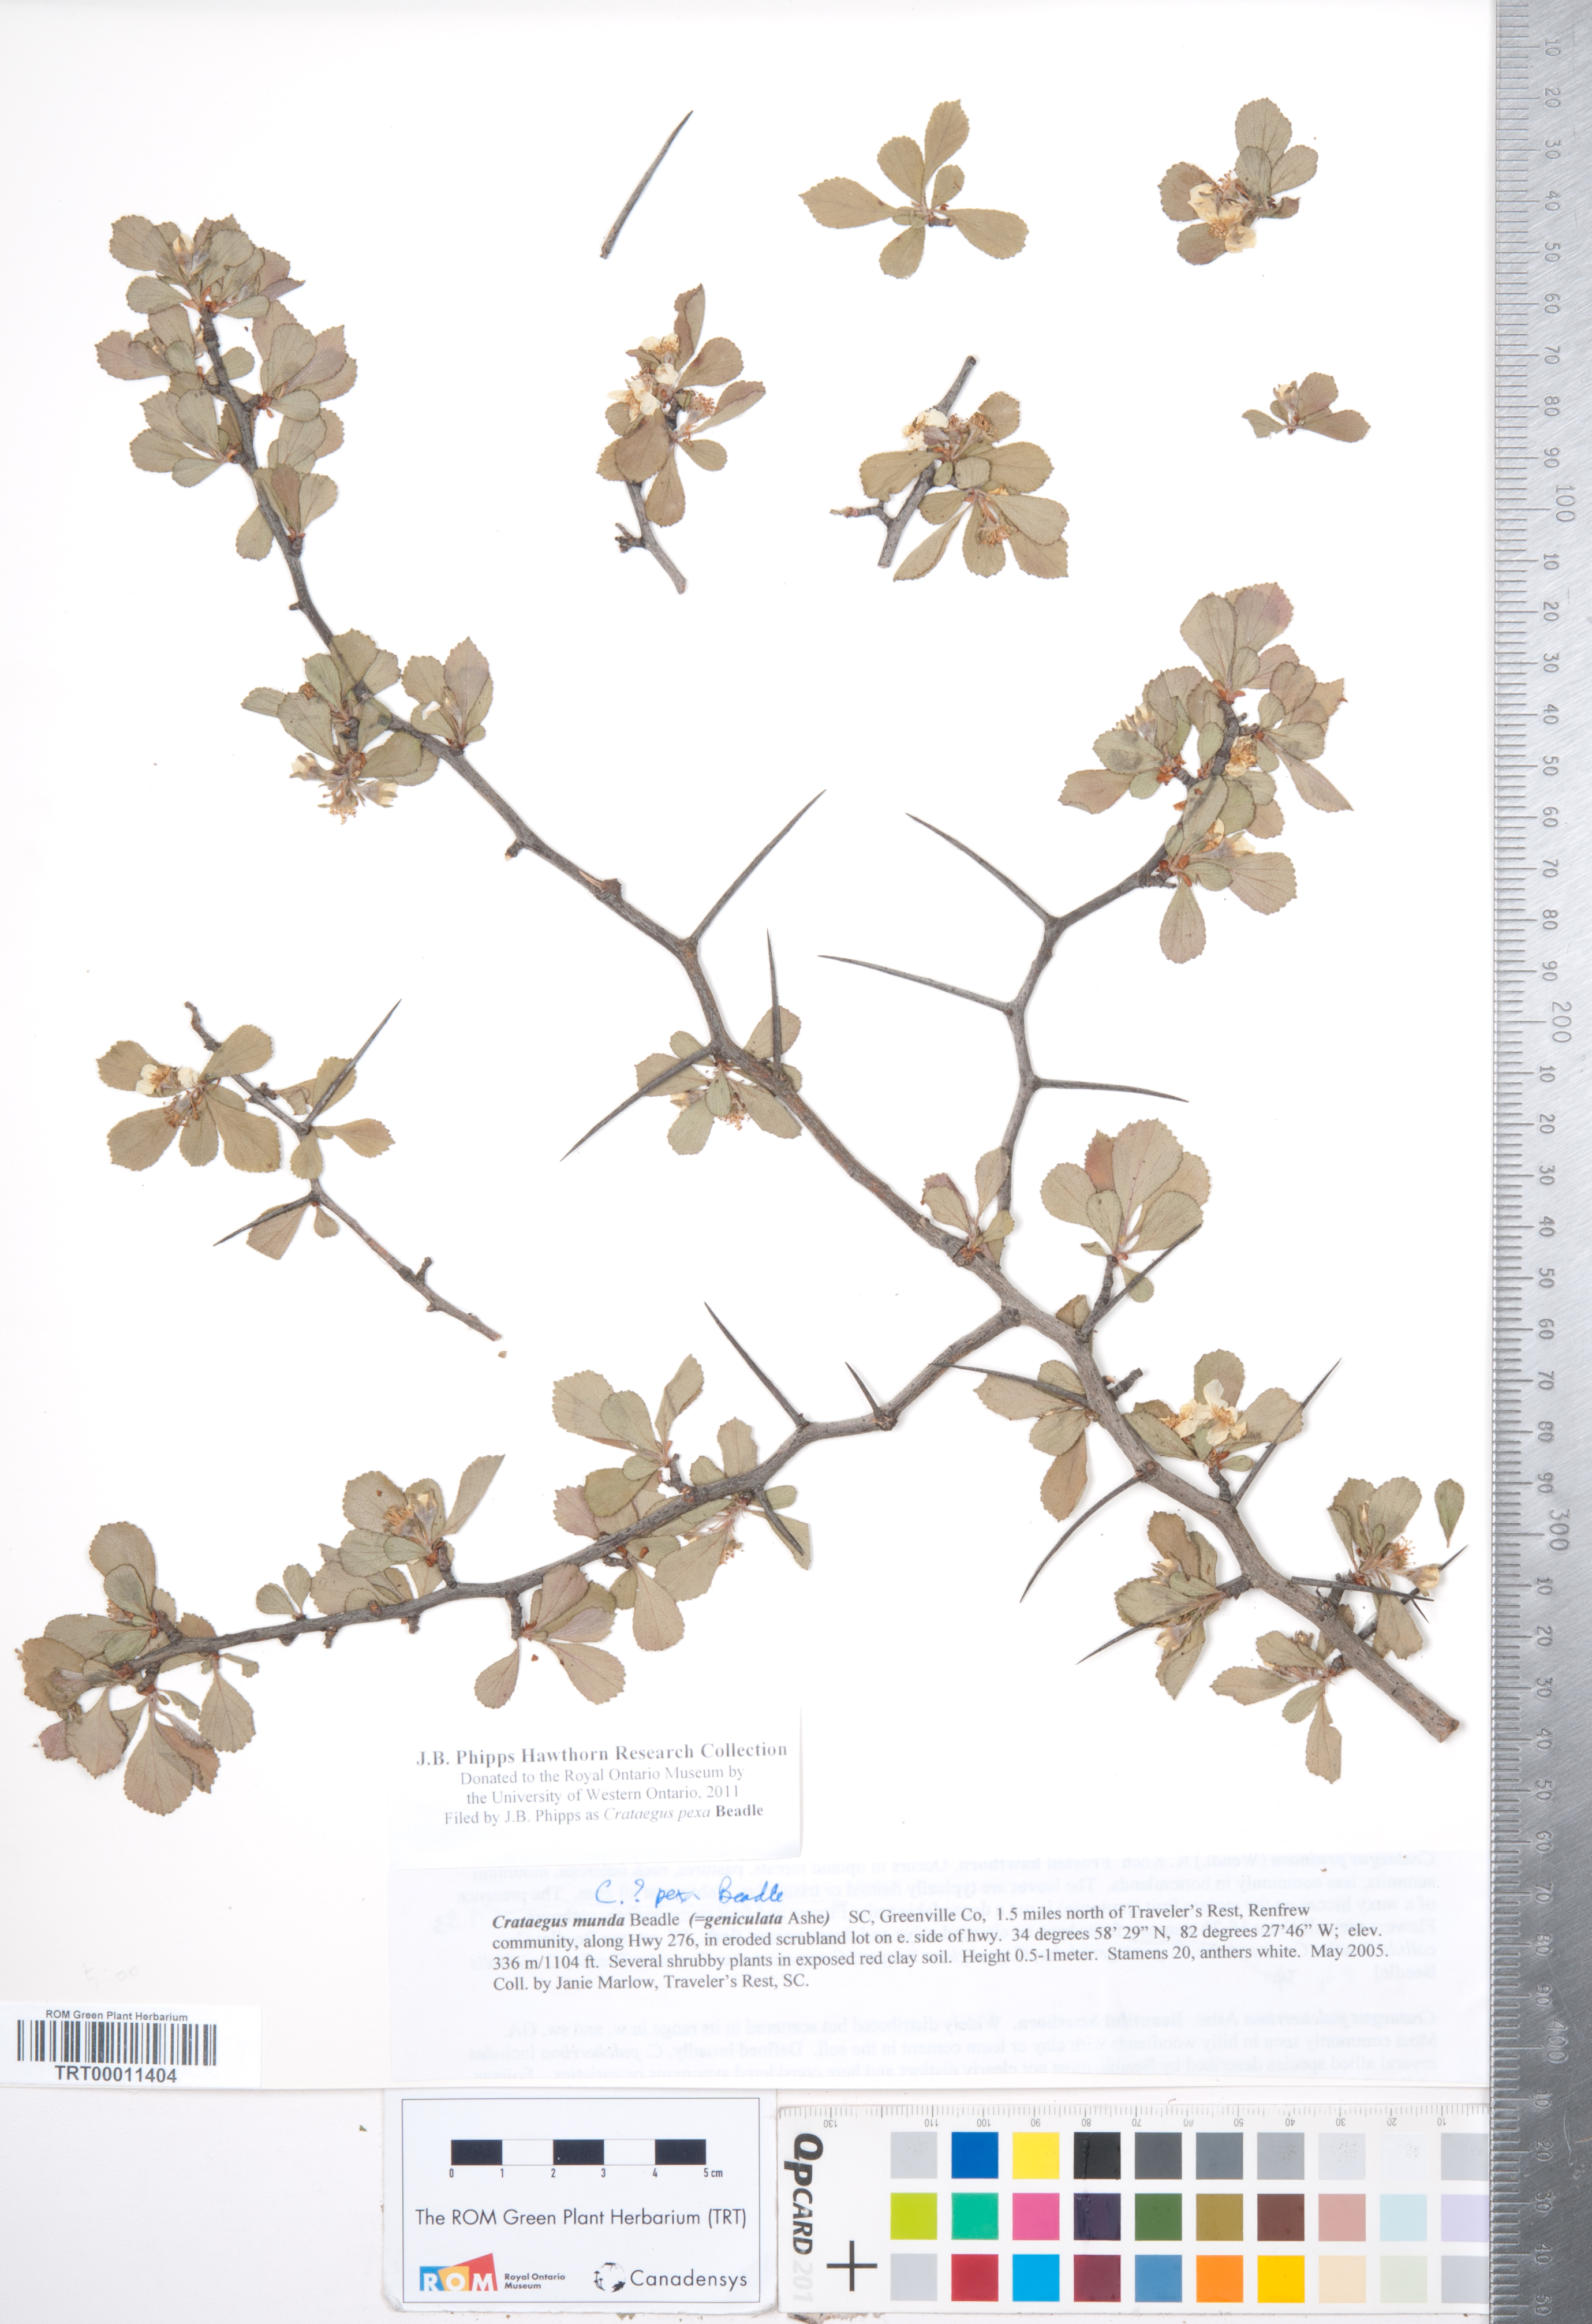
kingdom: Plantae
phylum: Tracheophyta
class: Magnoliopsida
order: Rosales
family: Rosaceae
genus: Crataegus
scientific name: Crataegus munda
